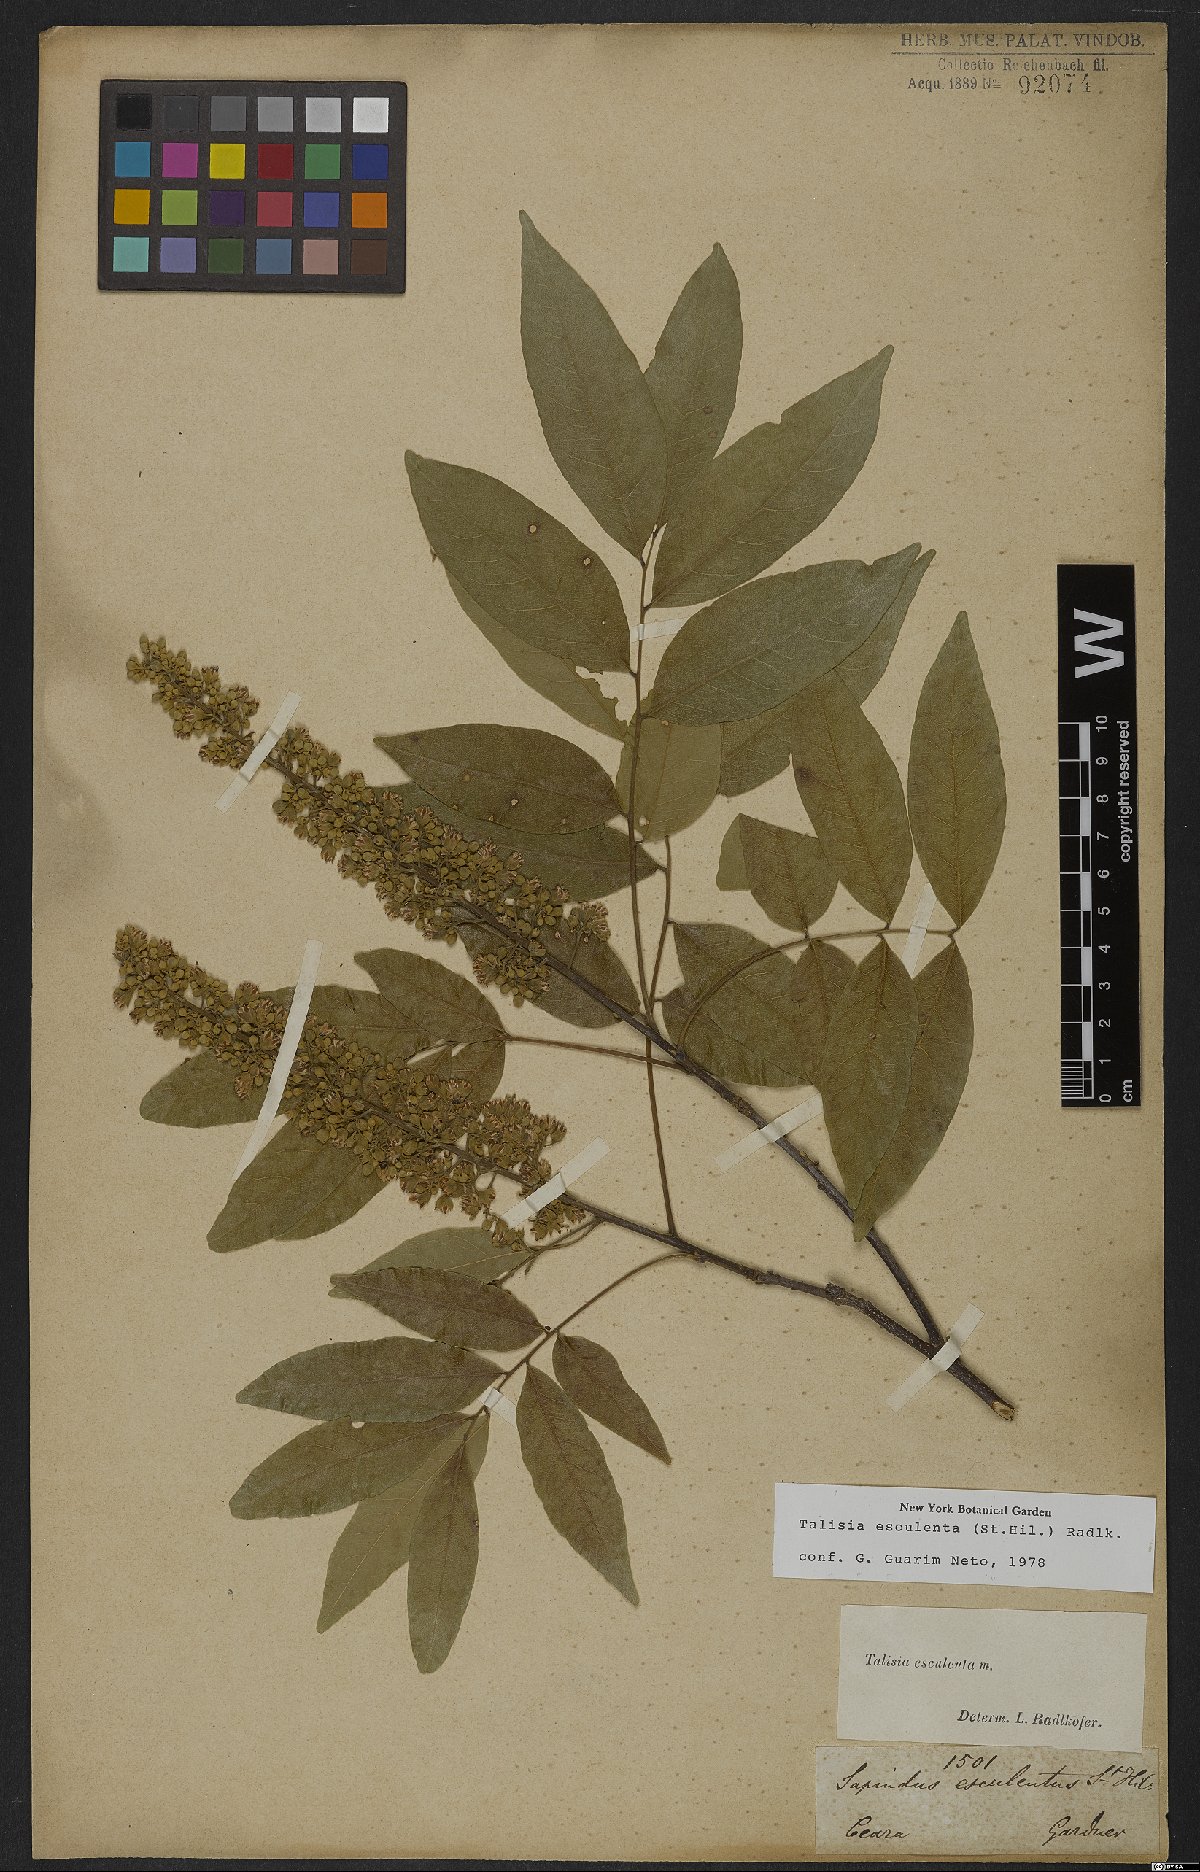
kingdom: Plantae
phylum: Tracheophyta
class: Magnoliopsida
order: Sapindales
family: Sapindaceae
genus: Talisia
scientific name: Talisia esculenta
